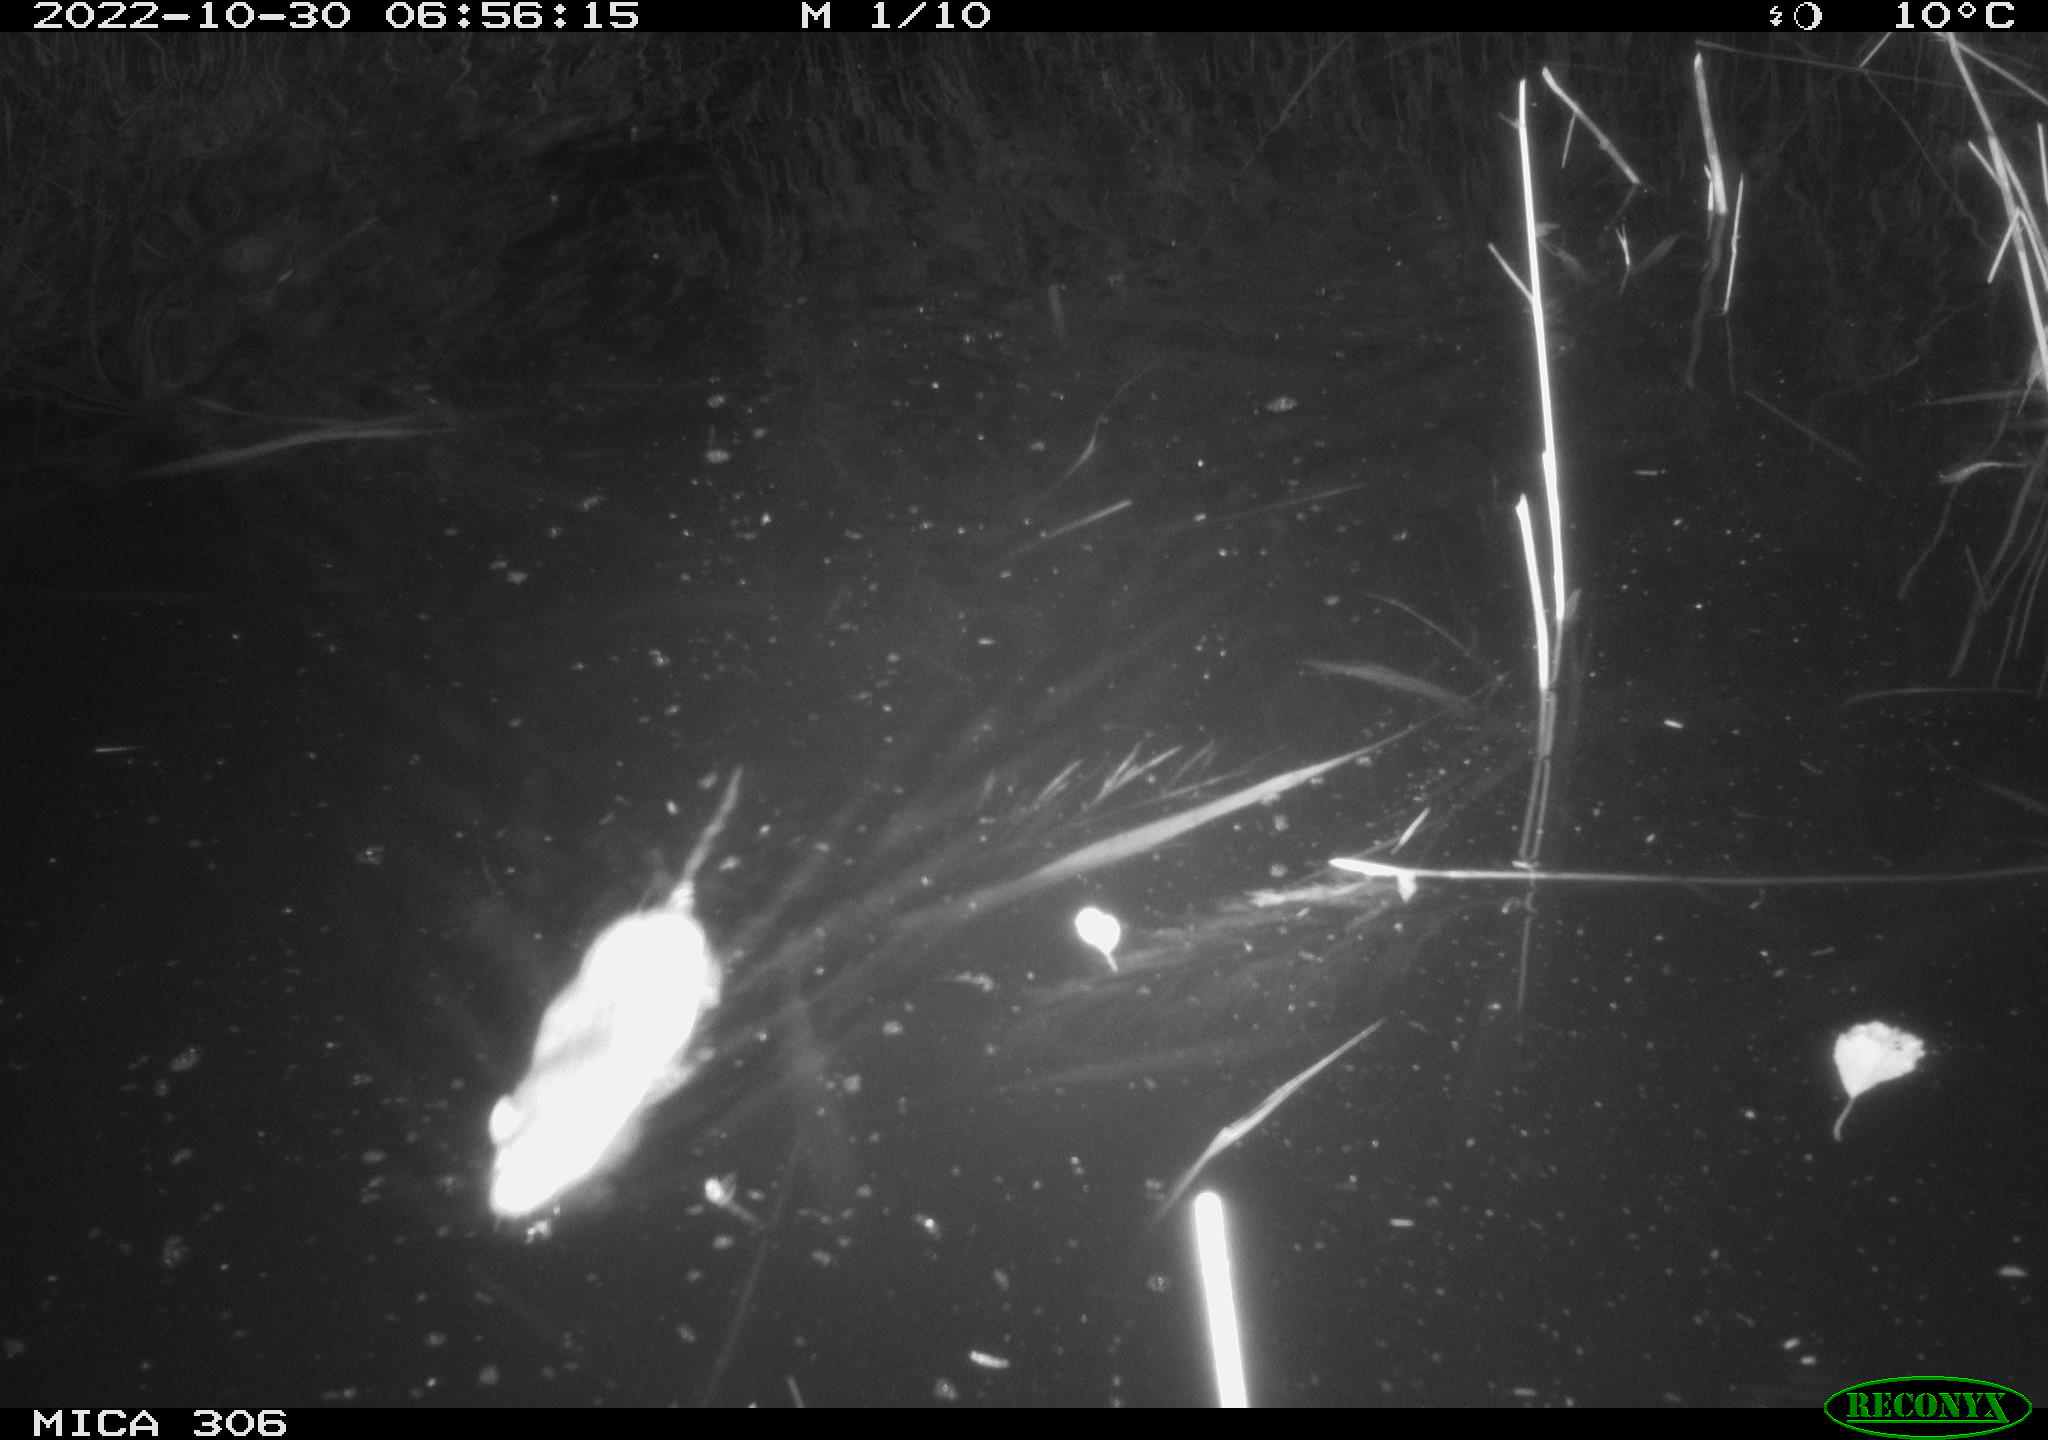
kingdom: Animalia
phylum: Chordata
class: Mammalia
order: Rodentia
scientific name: Rodentia
